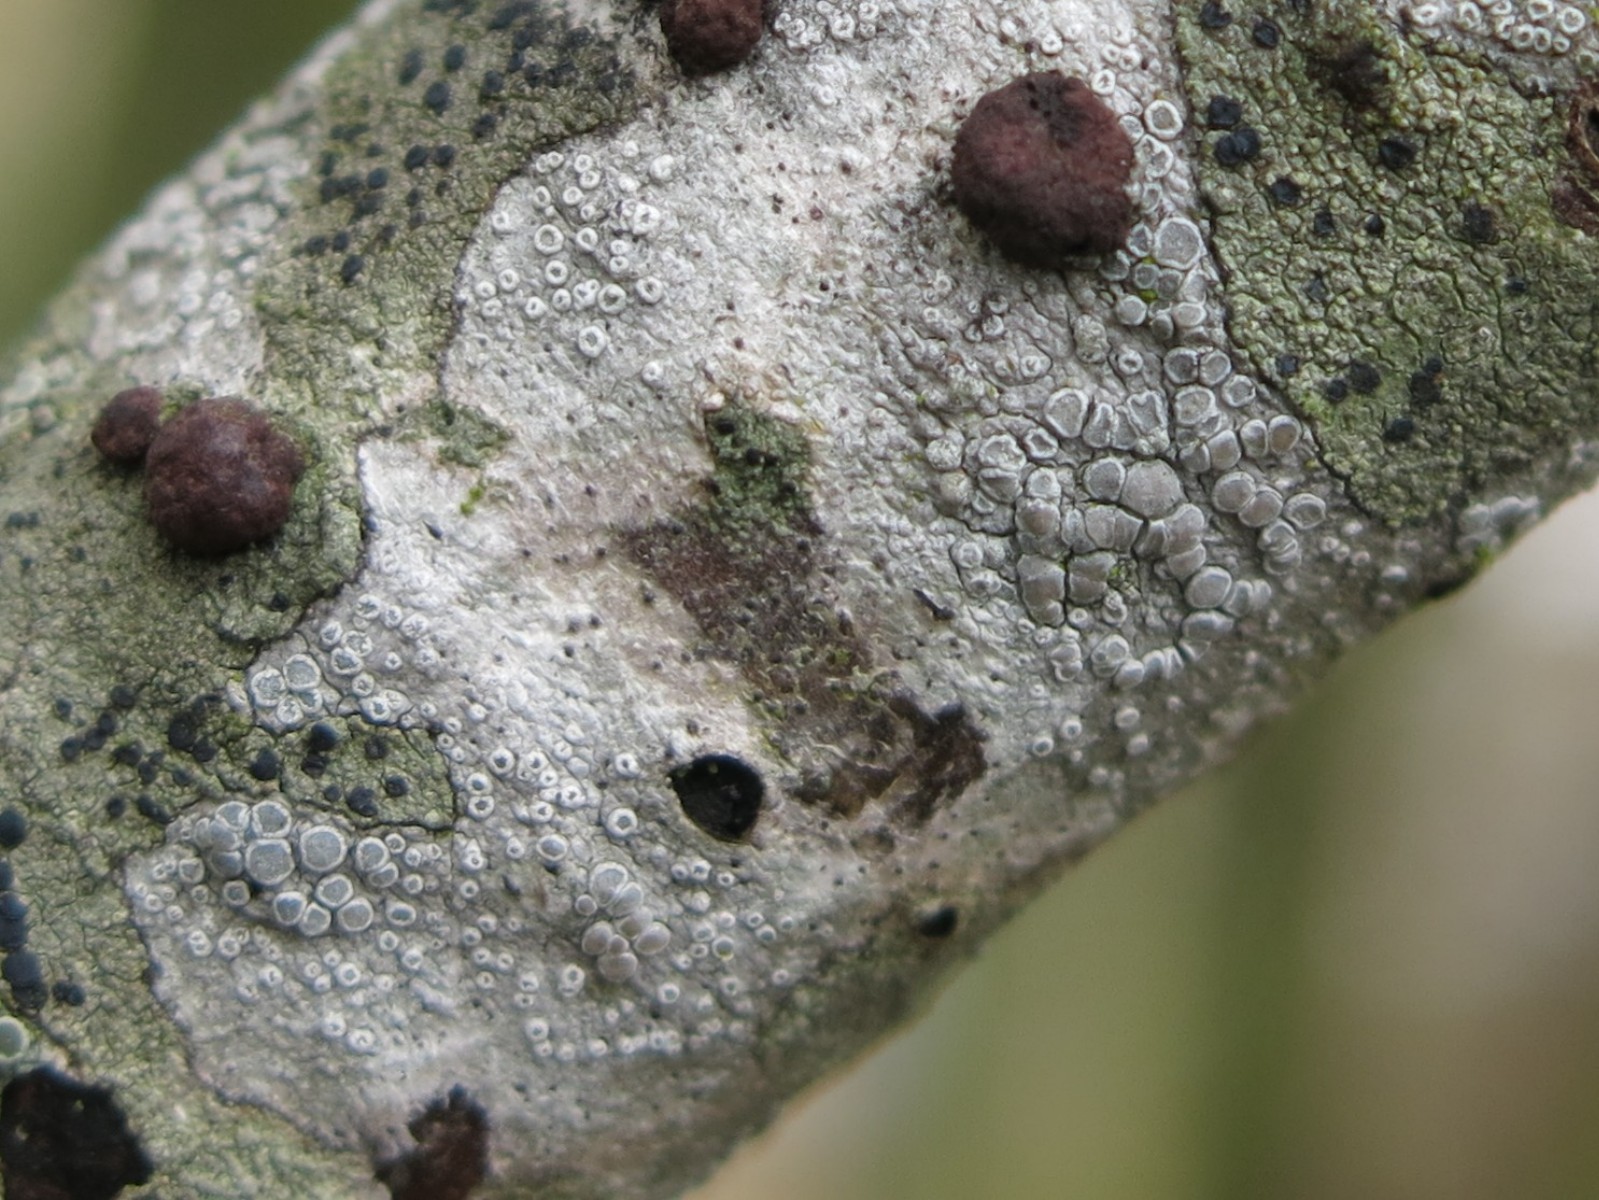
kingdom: Fungi
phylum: Ascomycota
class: Lecanoromycetes
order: Lecanorales
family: Lecanoraceae
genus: Glaucomaria
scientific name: Glaucomaria carpinea
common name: hviddugget kantskivelav
